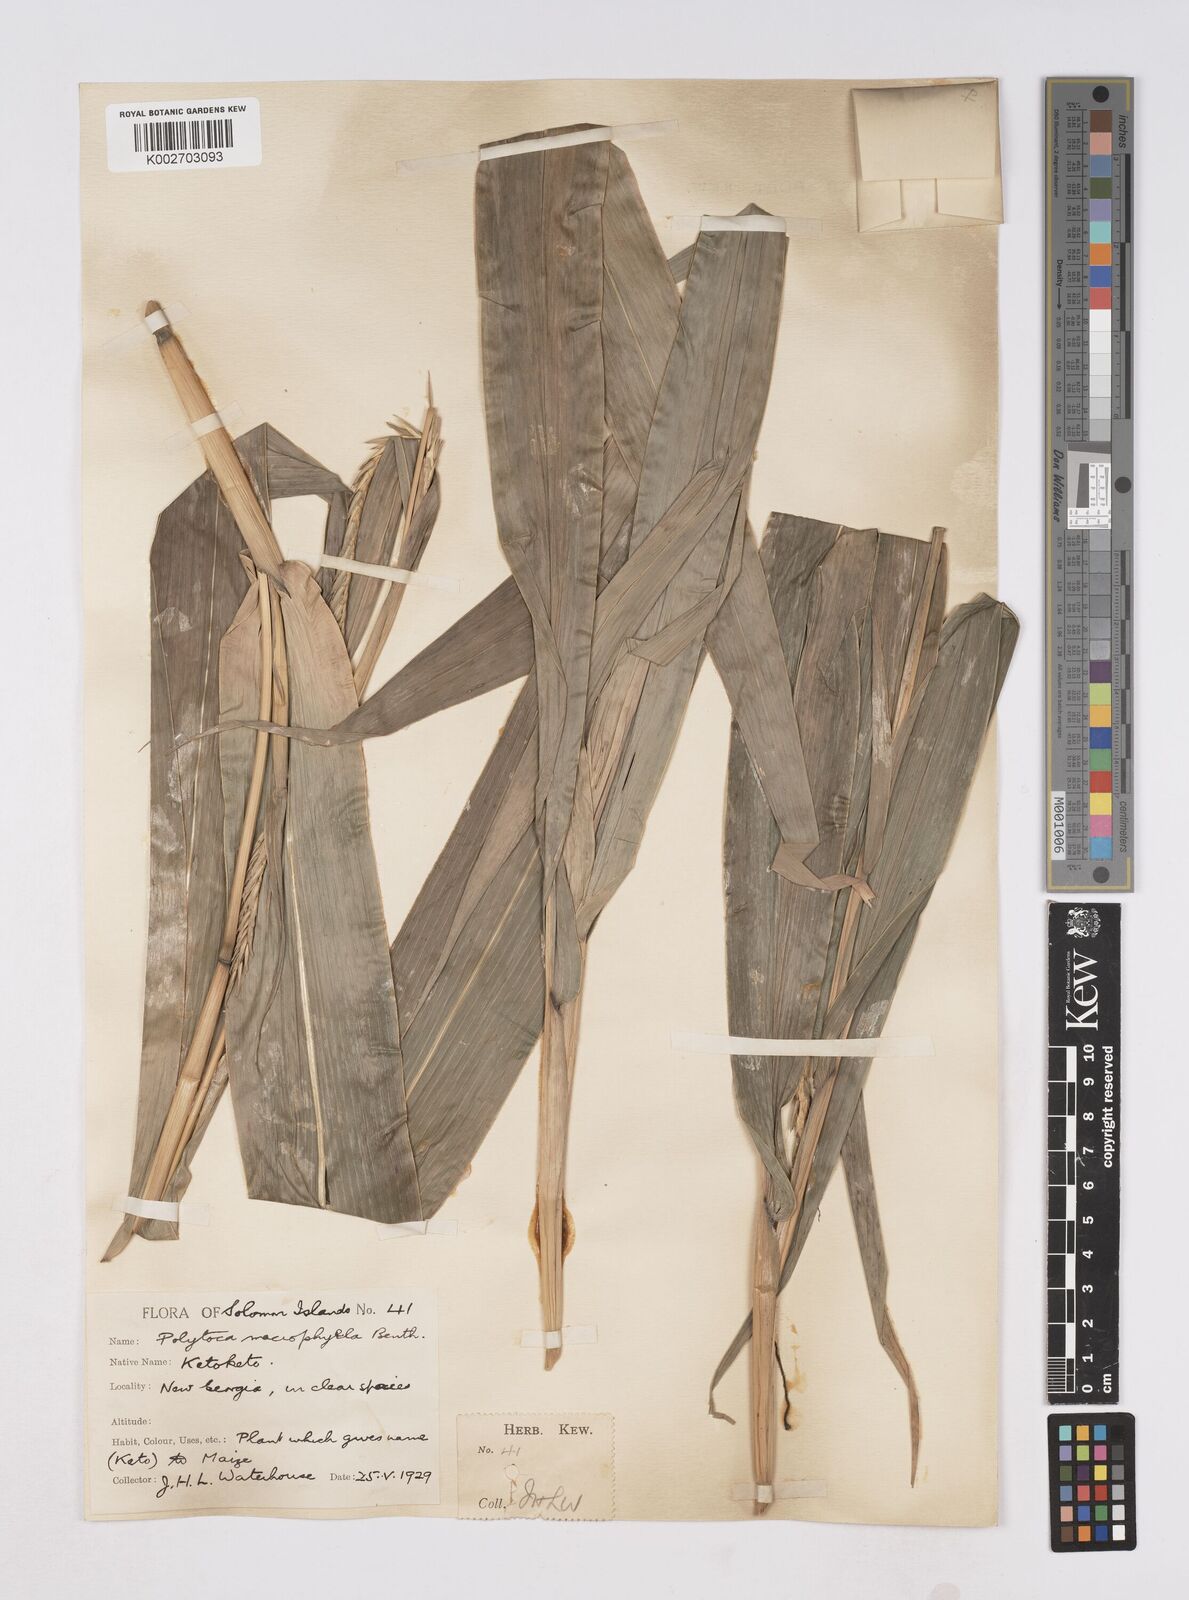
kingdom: Plantae
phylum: Tracheophyta
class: Liliopsida
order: Poales
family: Poaceae
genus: Polytoca
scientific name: Polytoca macrophylla
